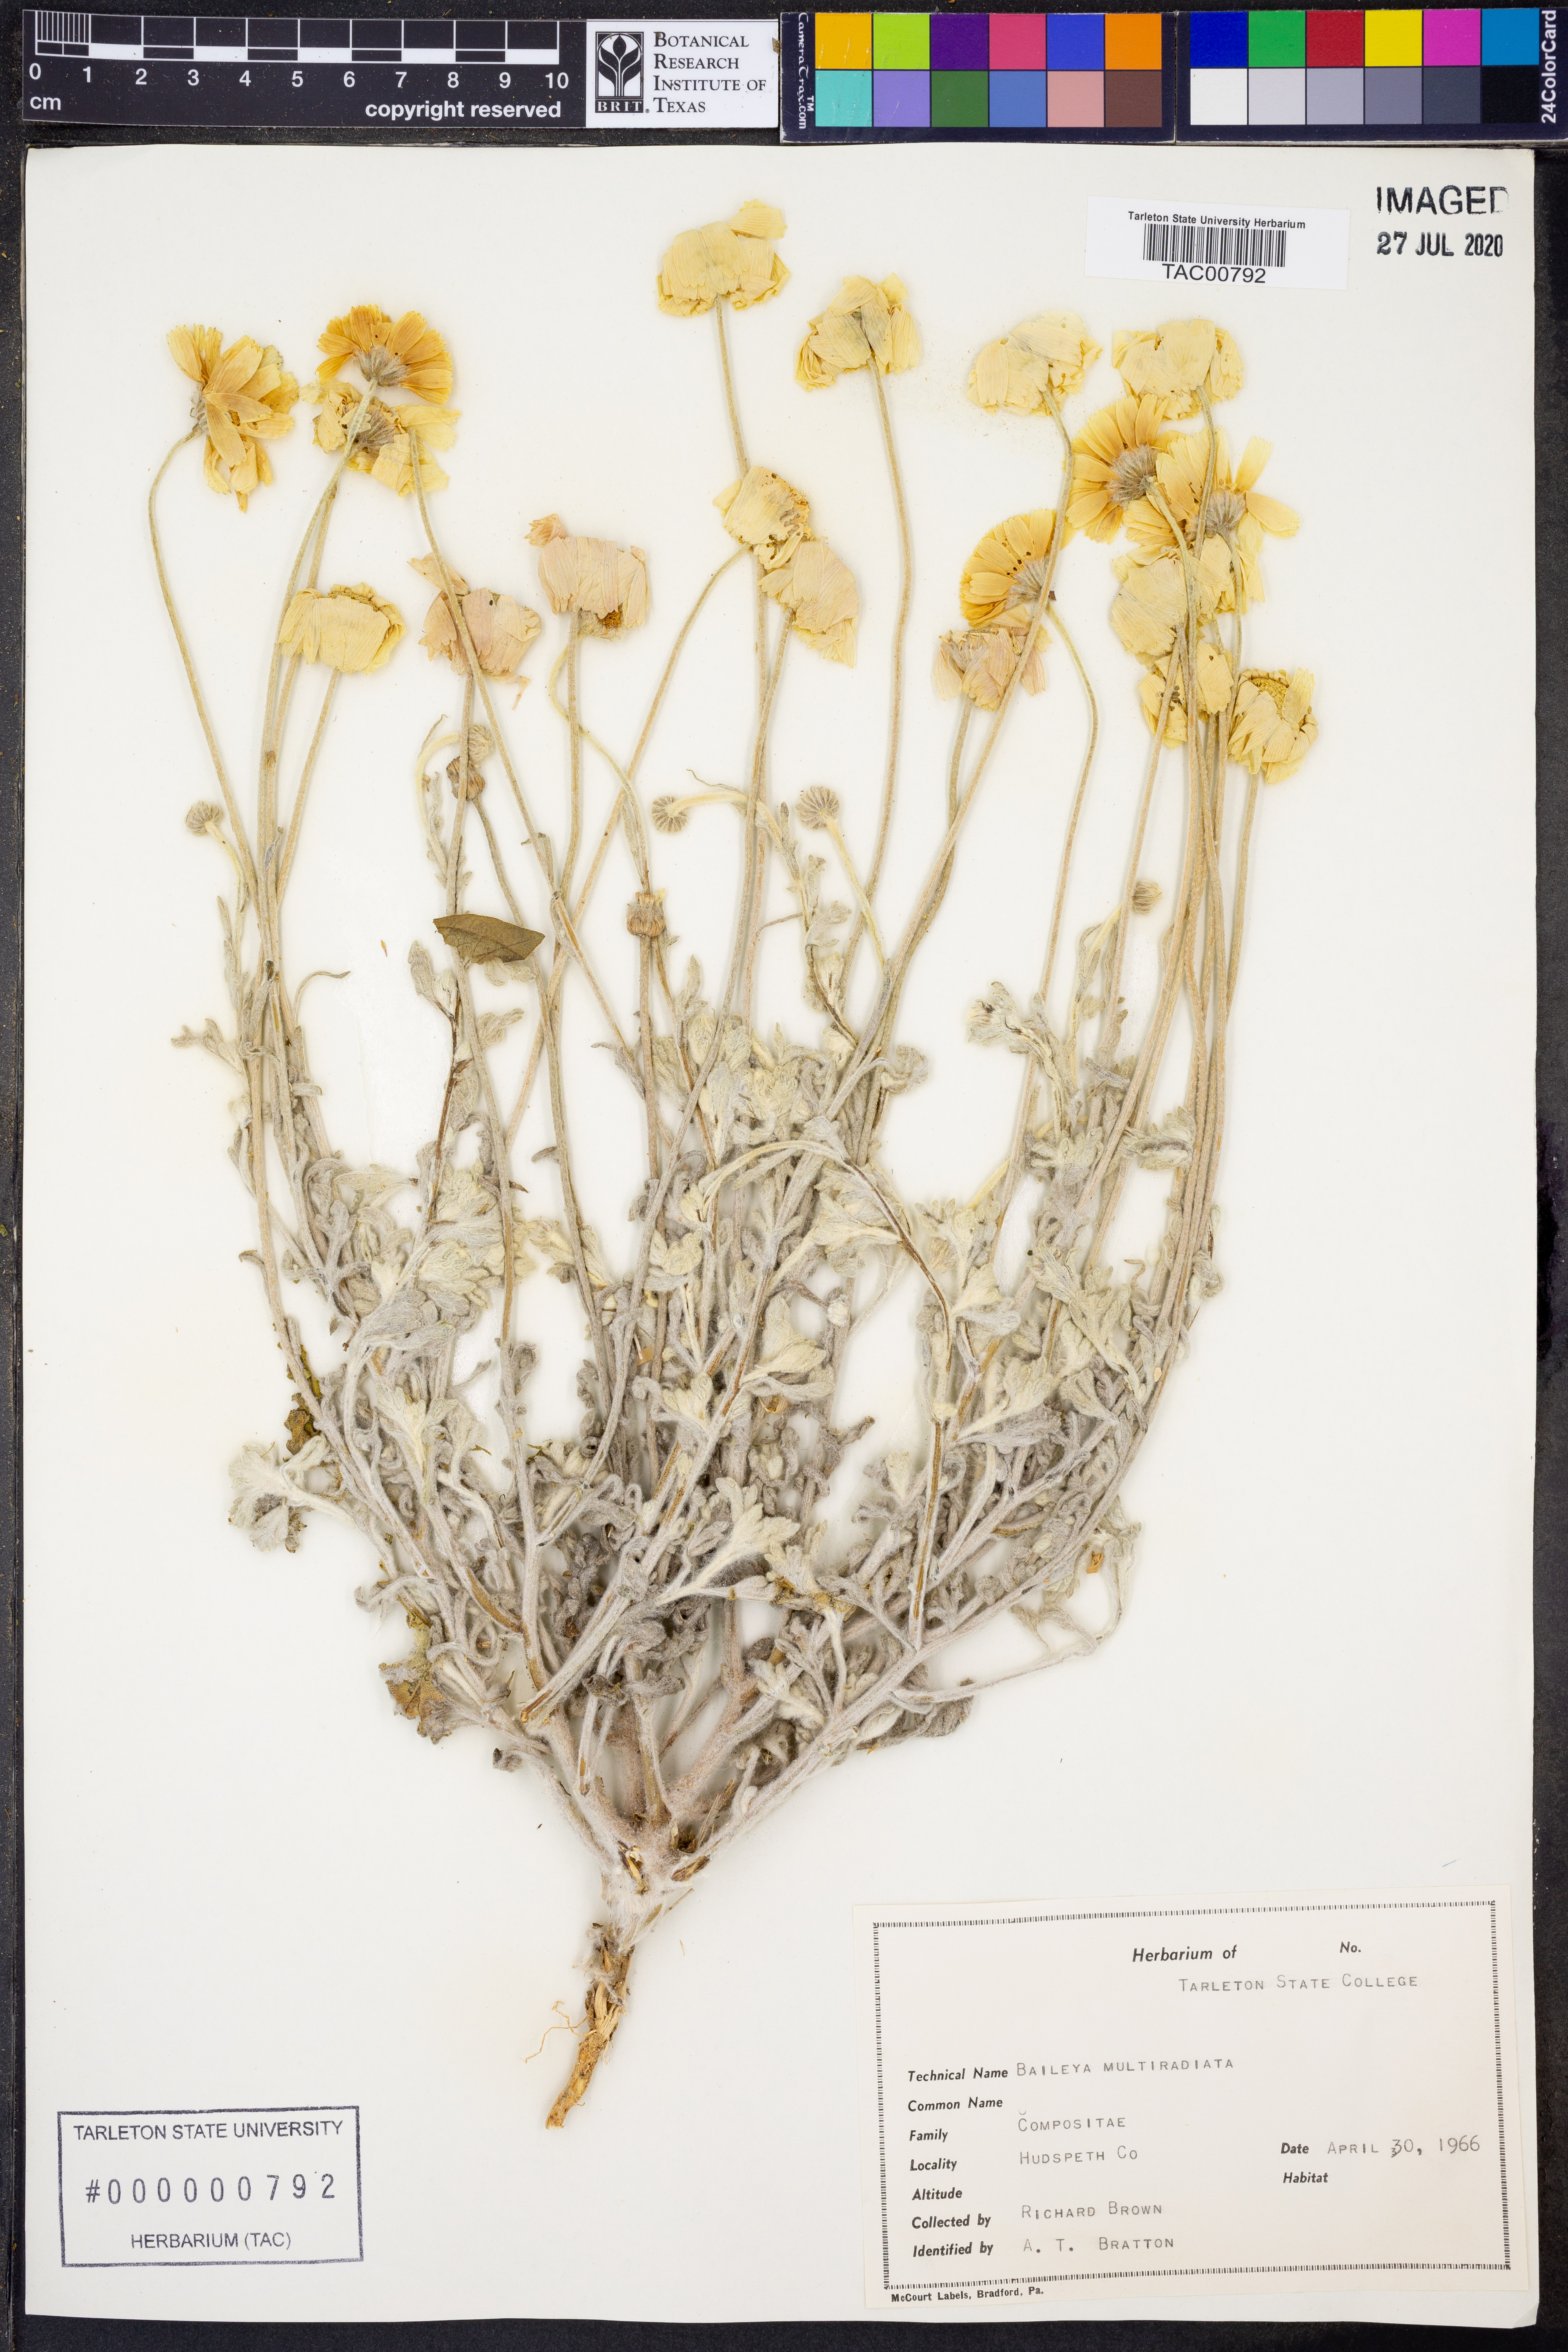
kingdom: Plantae
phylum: Tracheophyta
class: Magnoliopsida
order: Asterales
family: Asteraceae
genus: Baileya
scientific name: Baileya multiradiata
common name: Desert-marigold
